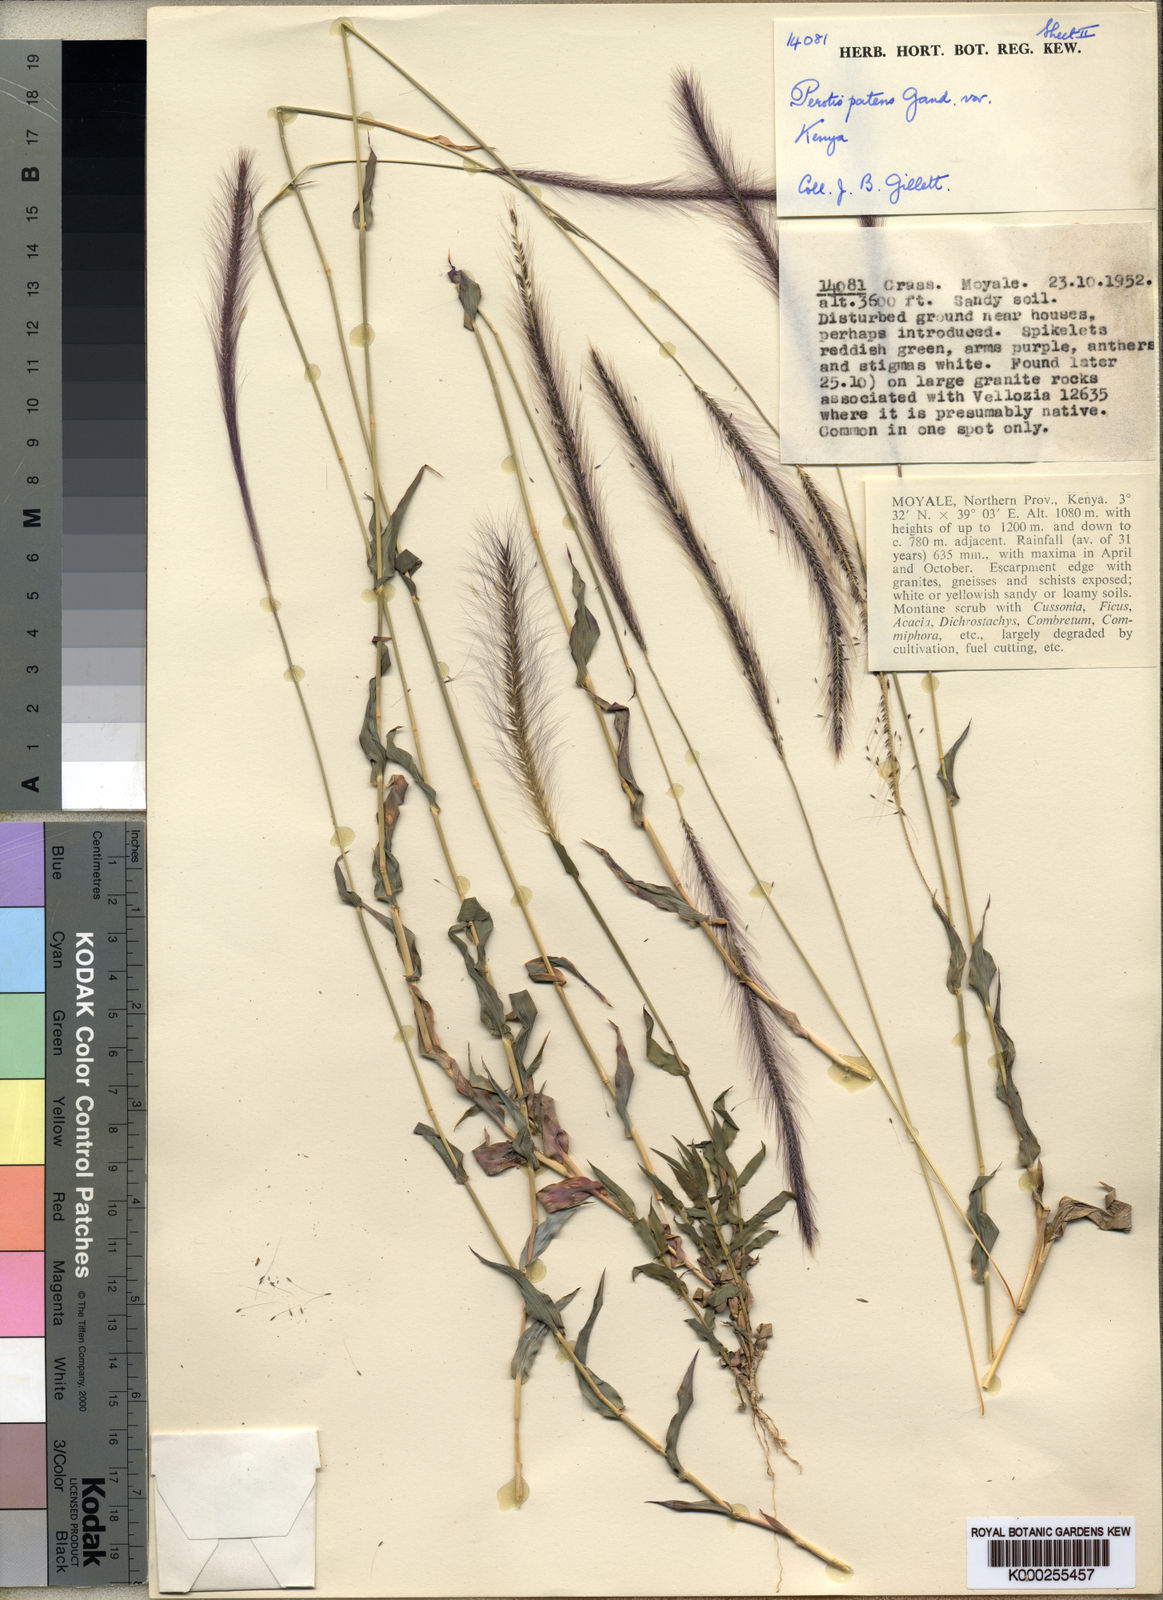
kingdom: Plantae
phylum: Tracheophyta
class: Liliopsida
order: Poales
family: Poaceae
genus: Perotis
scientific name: Perotis patens
